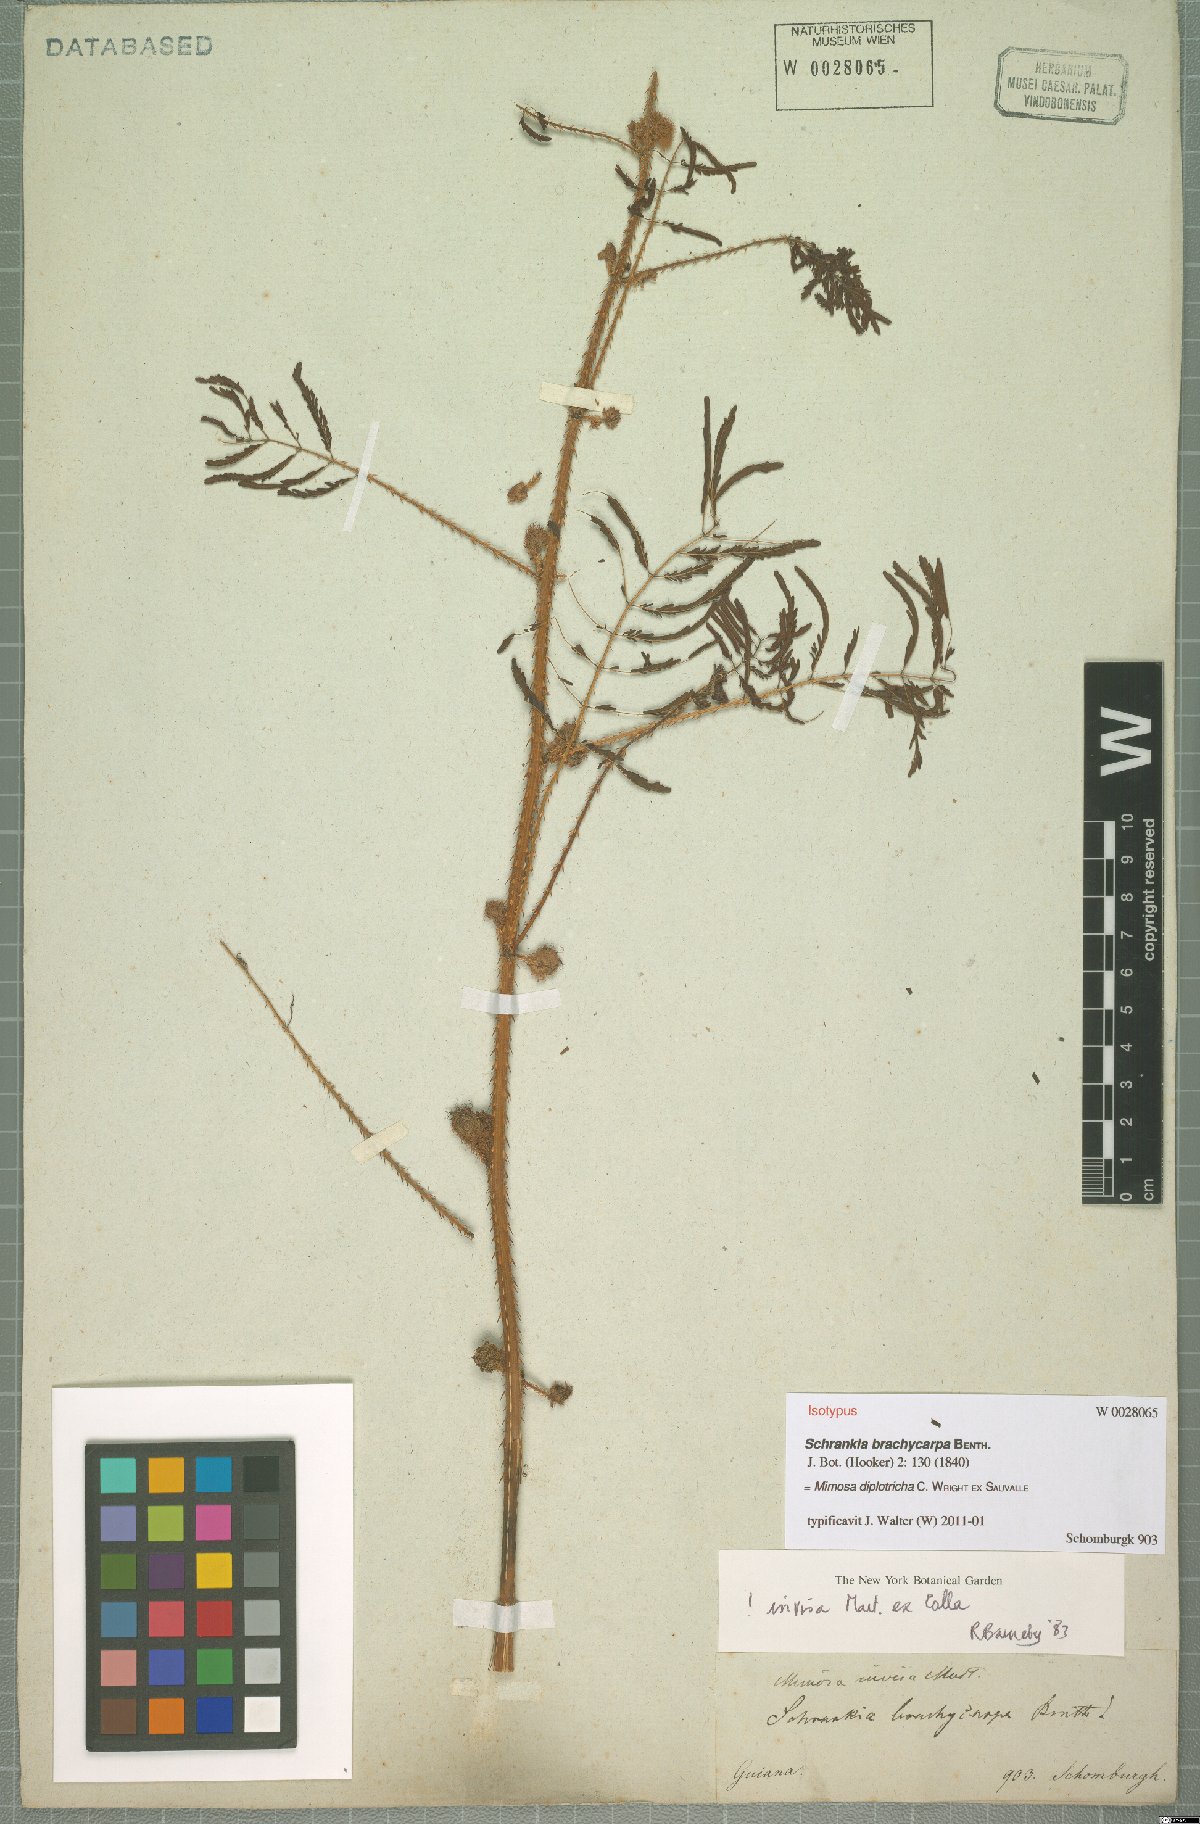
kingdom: Plantae
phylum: Tracheophyta
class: Magnoliopsida
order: Fabales
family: Fabaceae
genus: Mimosa
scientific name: Mimosa diplotricha
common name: Giant sensitive-plant
